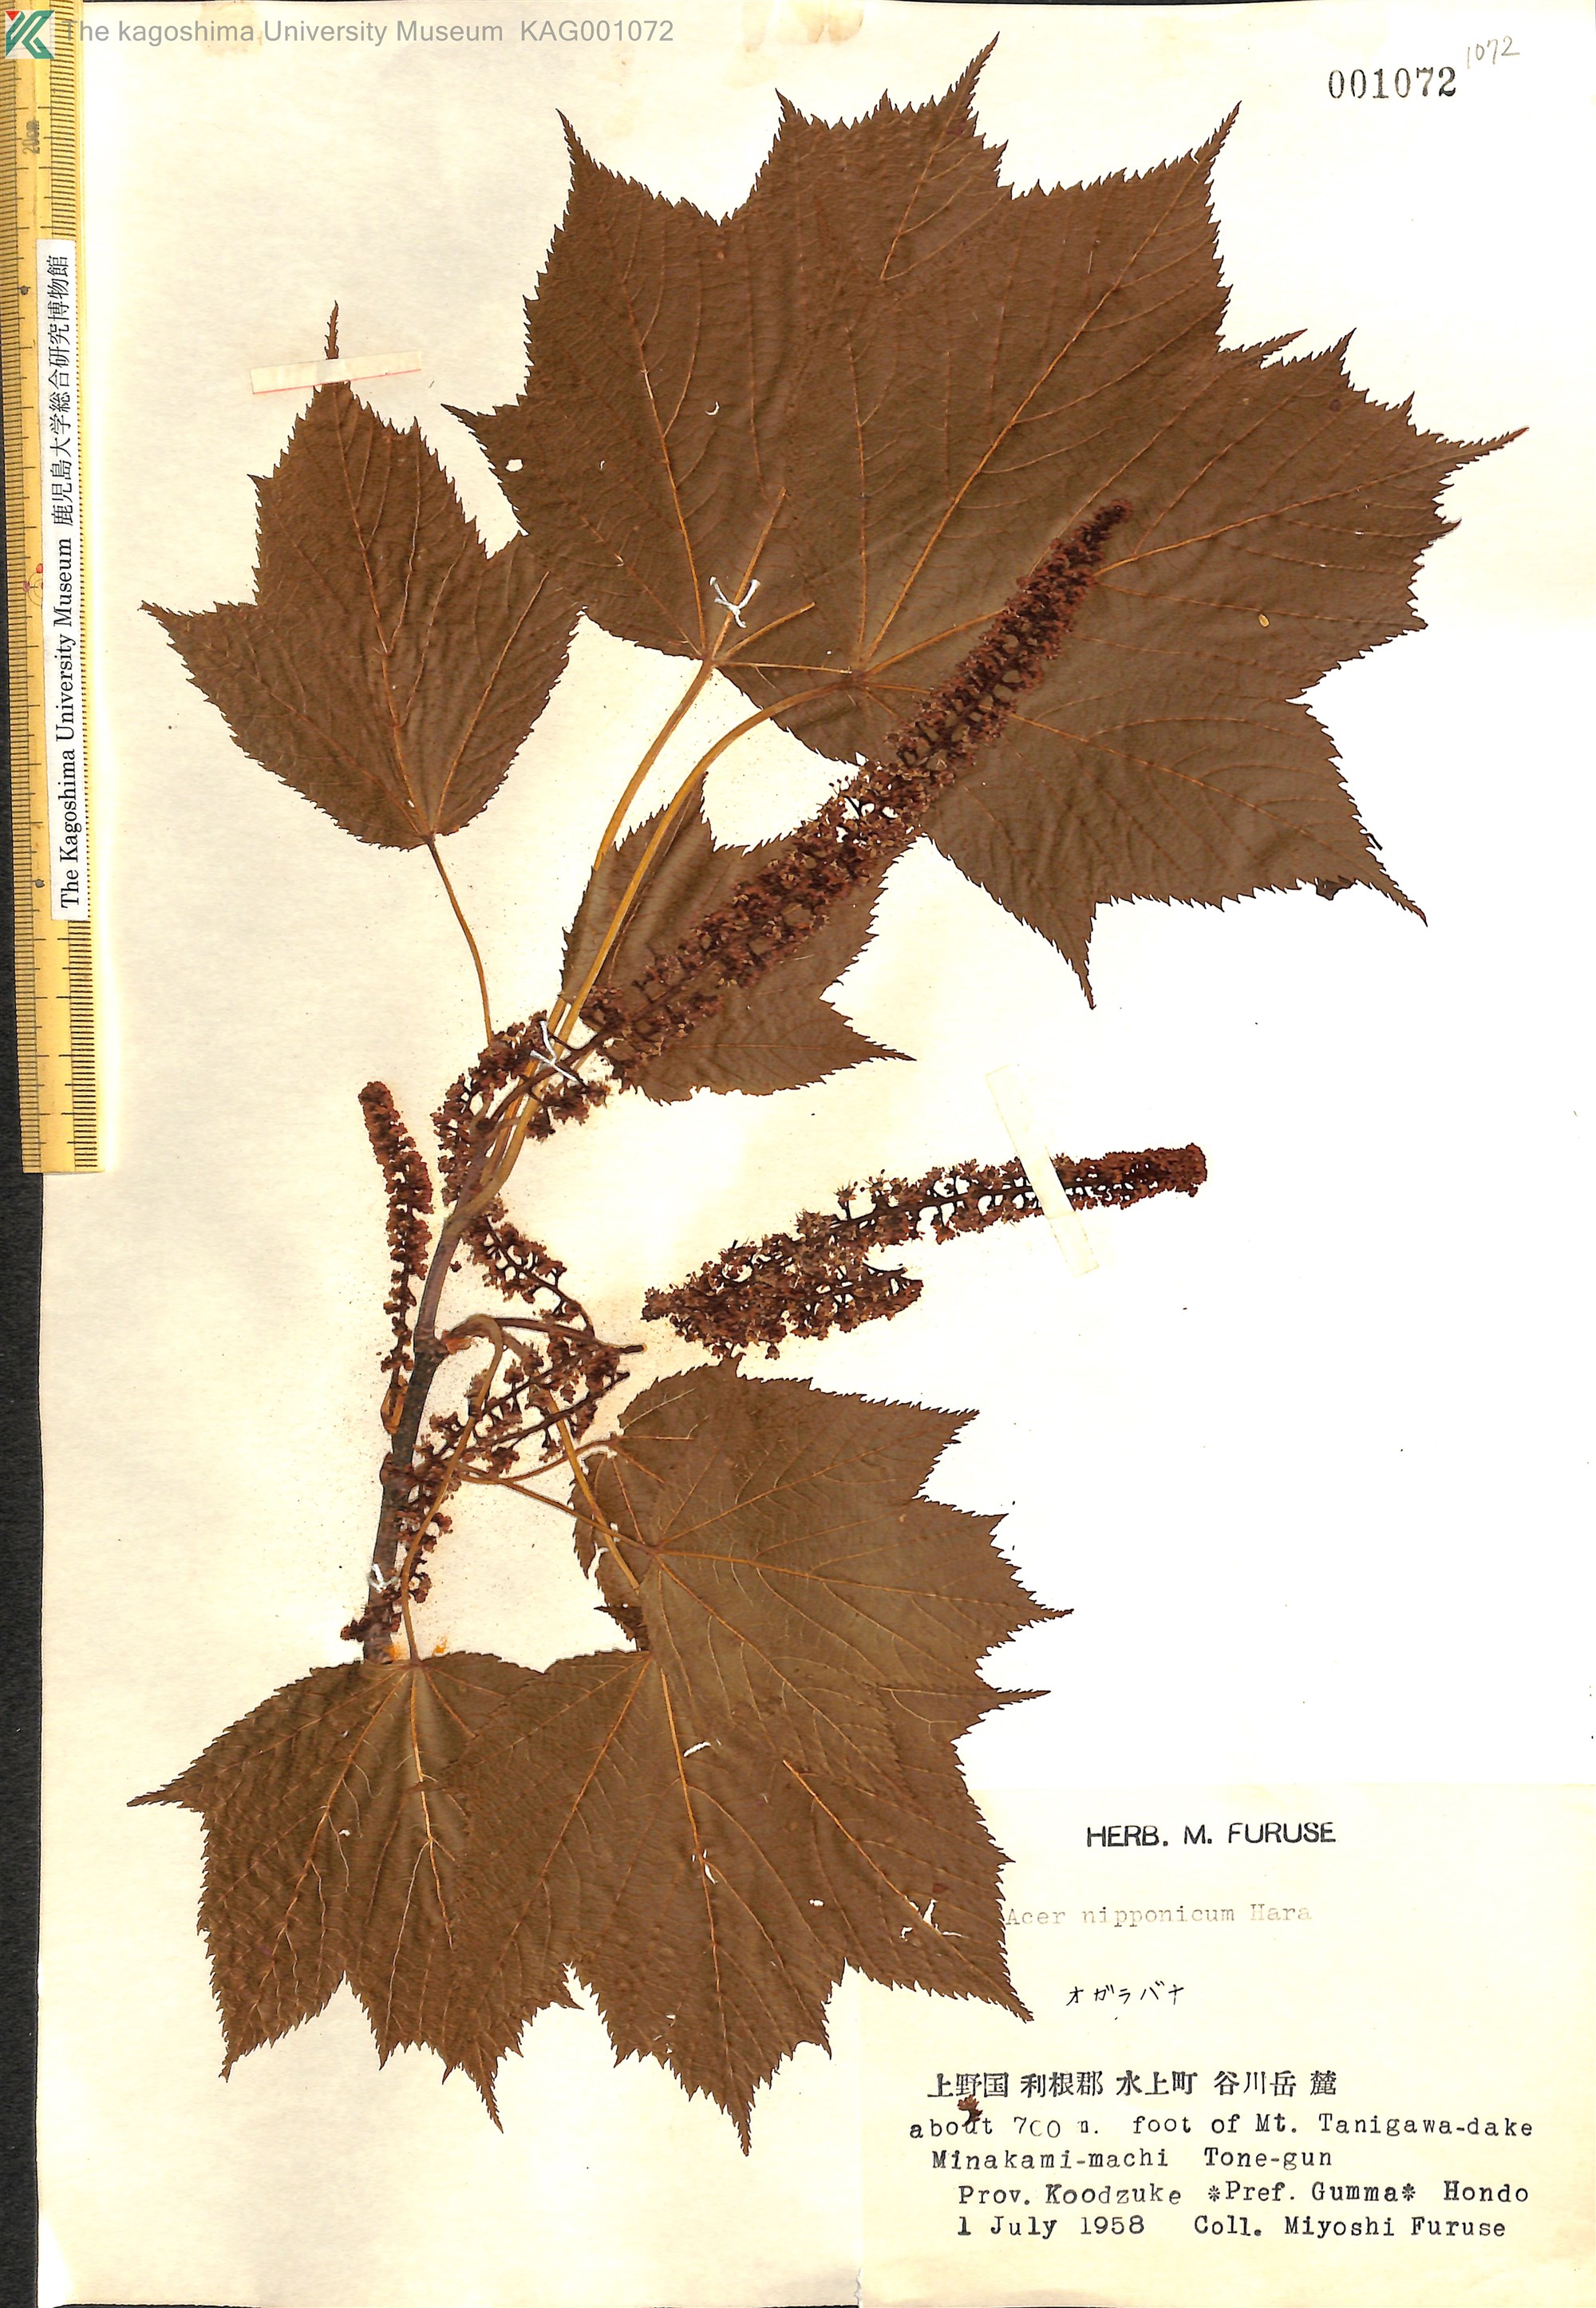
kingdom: Plantae
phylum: Tracheophyta
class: Magnoliopsida
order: Sapindales
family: Sapindaceae
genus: Acer
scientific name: Acer nipponicum
